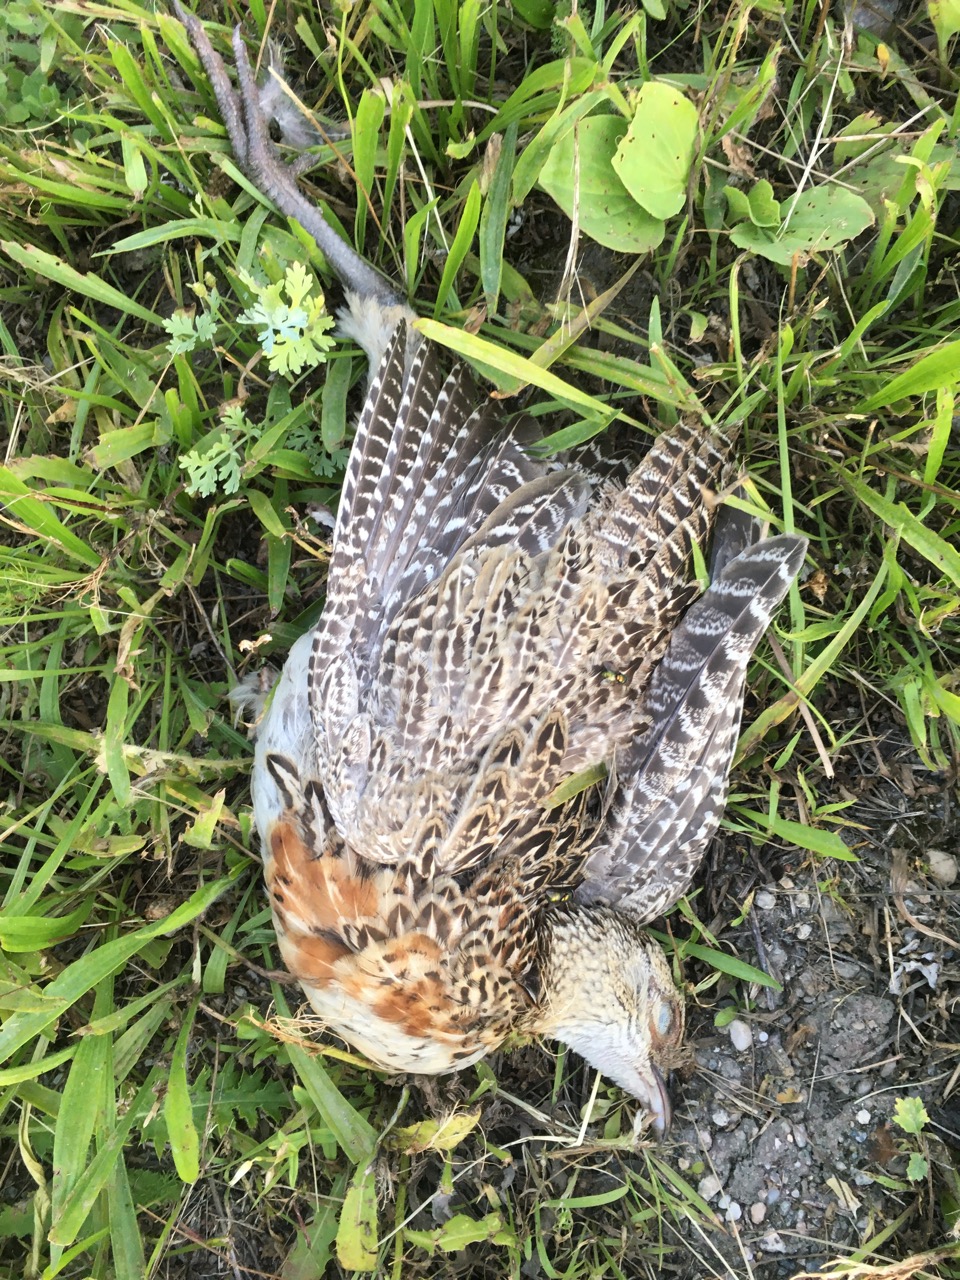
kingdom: Animalia
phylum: Chordata
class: Aves
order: Galliformes
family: Phasianidae
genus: Phasianus
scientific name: Phasianus colchicus
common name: Common pheasant
